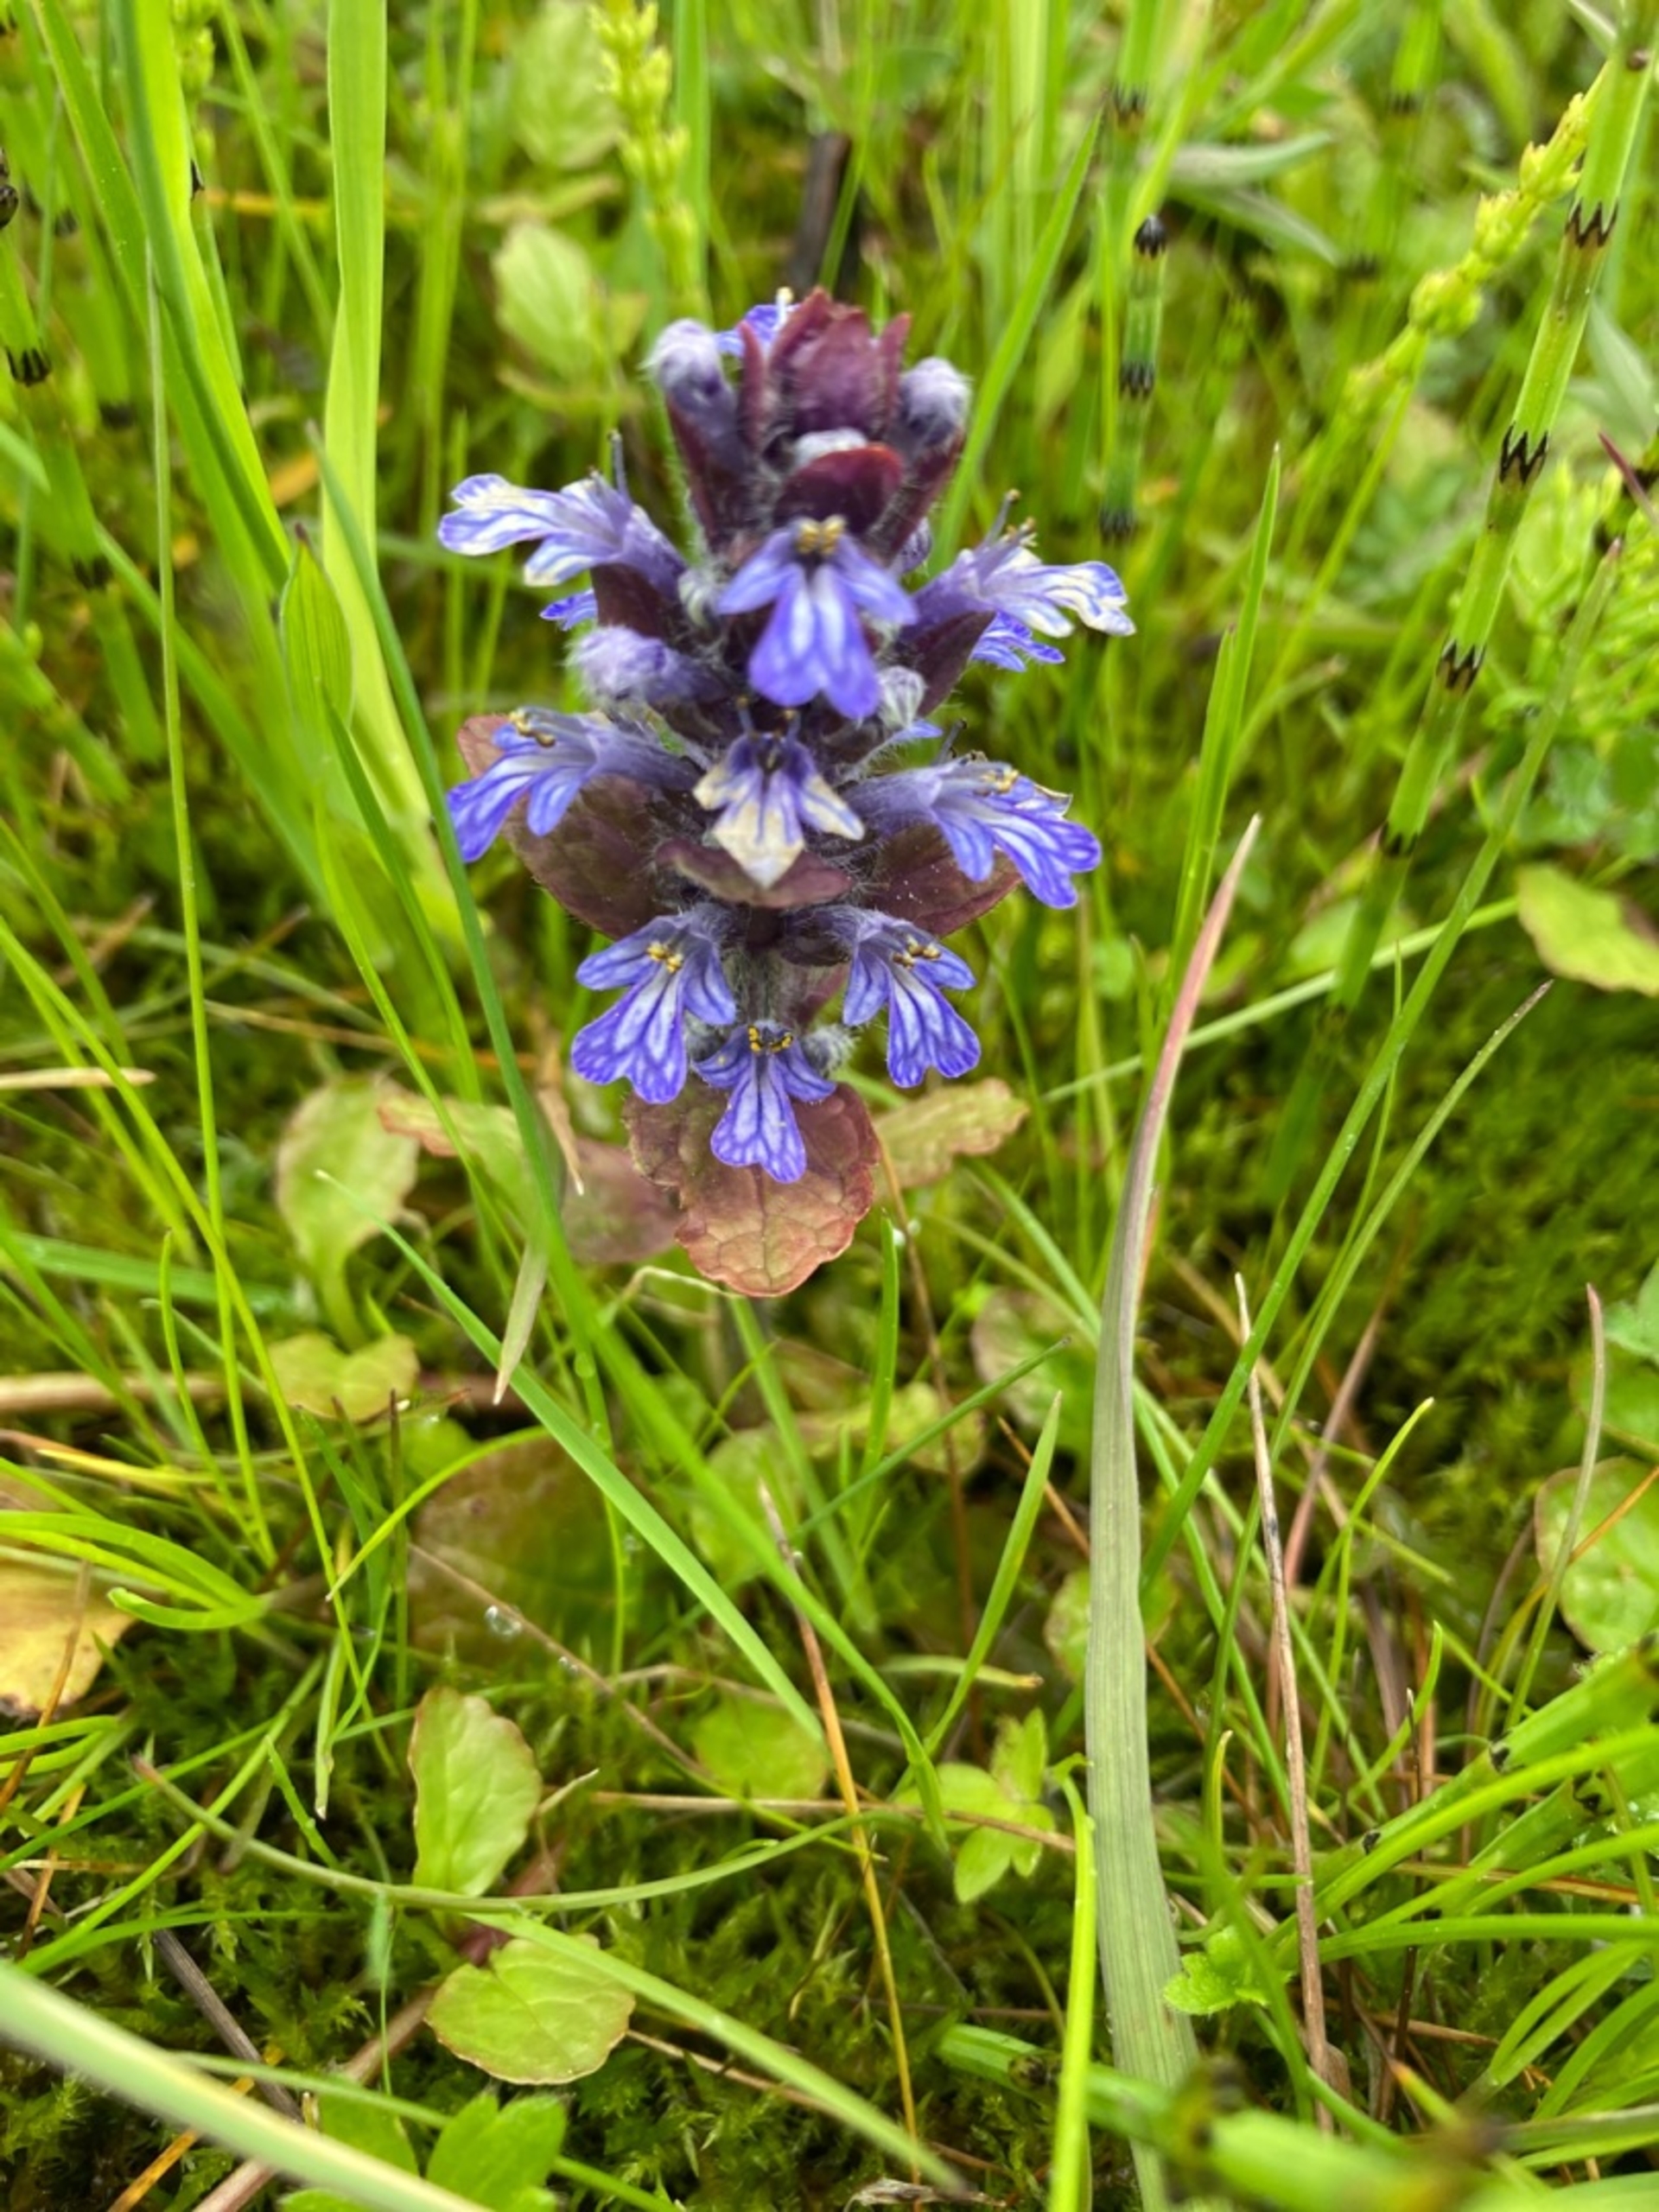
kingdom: Plantae
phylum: Tracheophyta
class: Magnoliopsida
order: Lamiales
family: Lamiaceae
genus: Ajuga
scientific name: Ajuga reptans
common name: Krybende læbeløs
